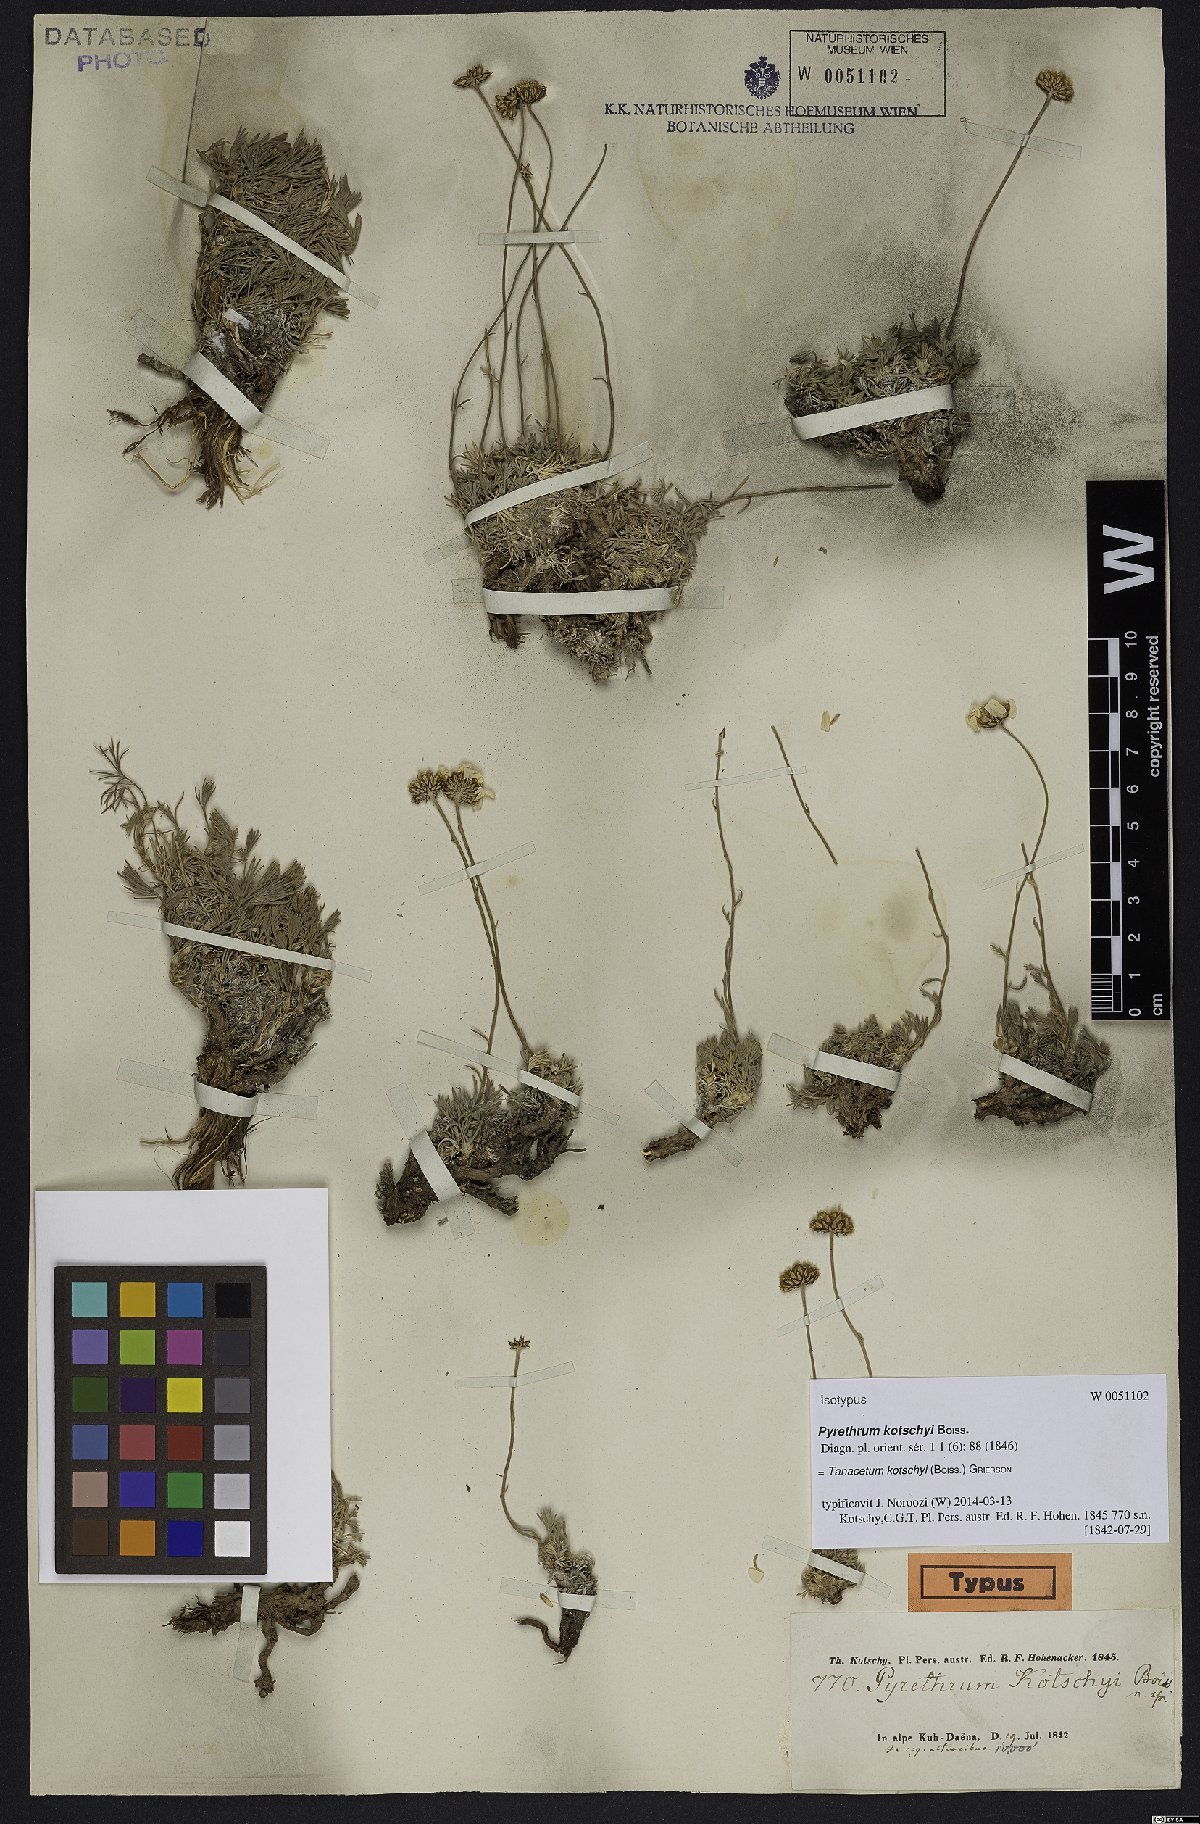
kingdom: Plantae
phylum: Tracheophyta
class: Magnoliopsida
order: Asterales
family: Asteraceae
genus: Tanacetum
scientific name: Tanacetum kotschyi
